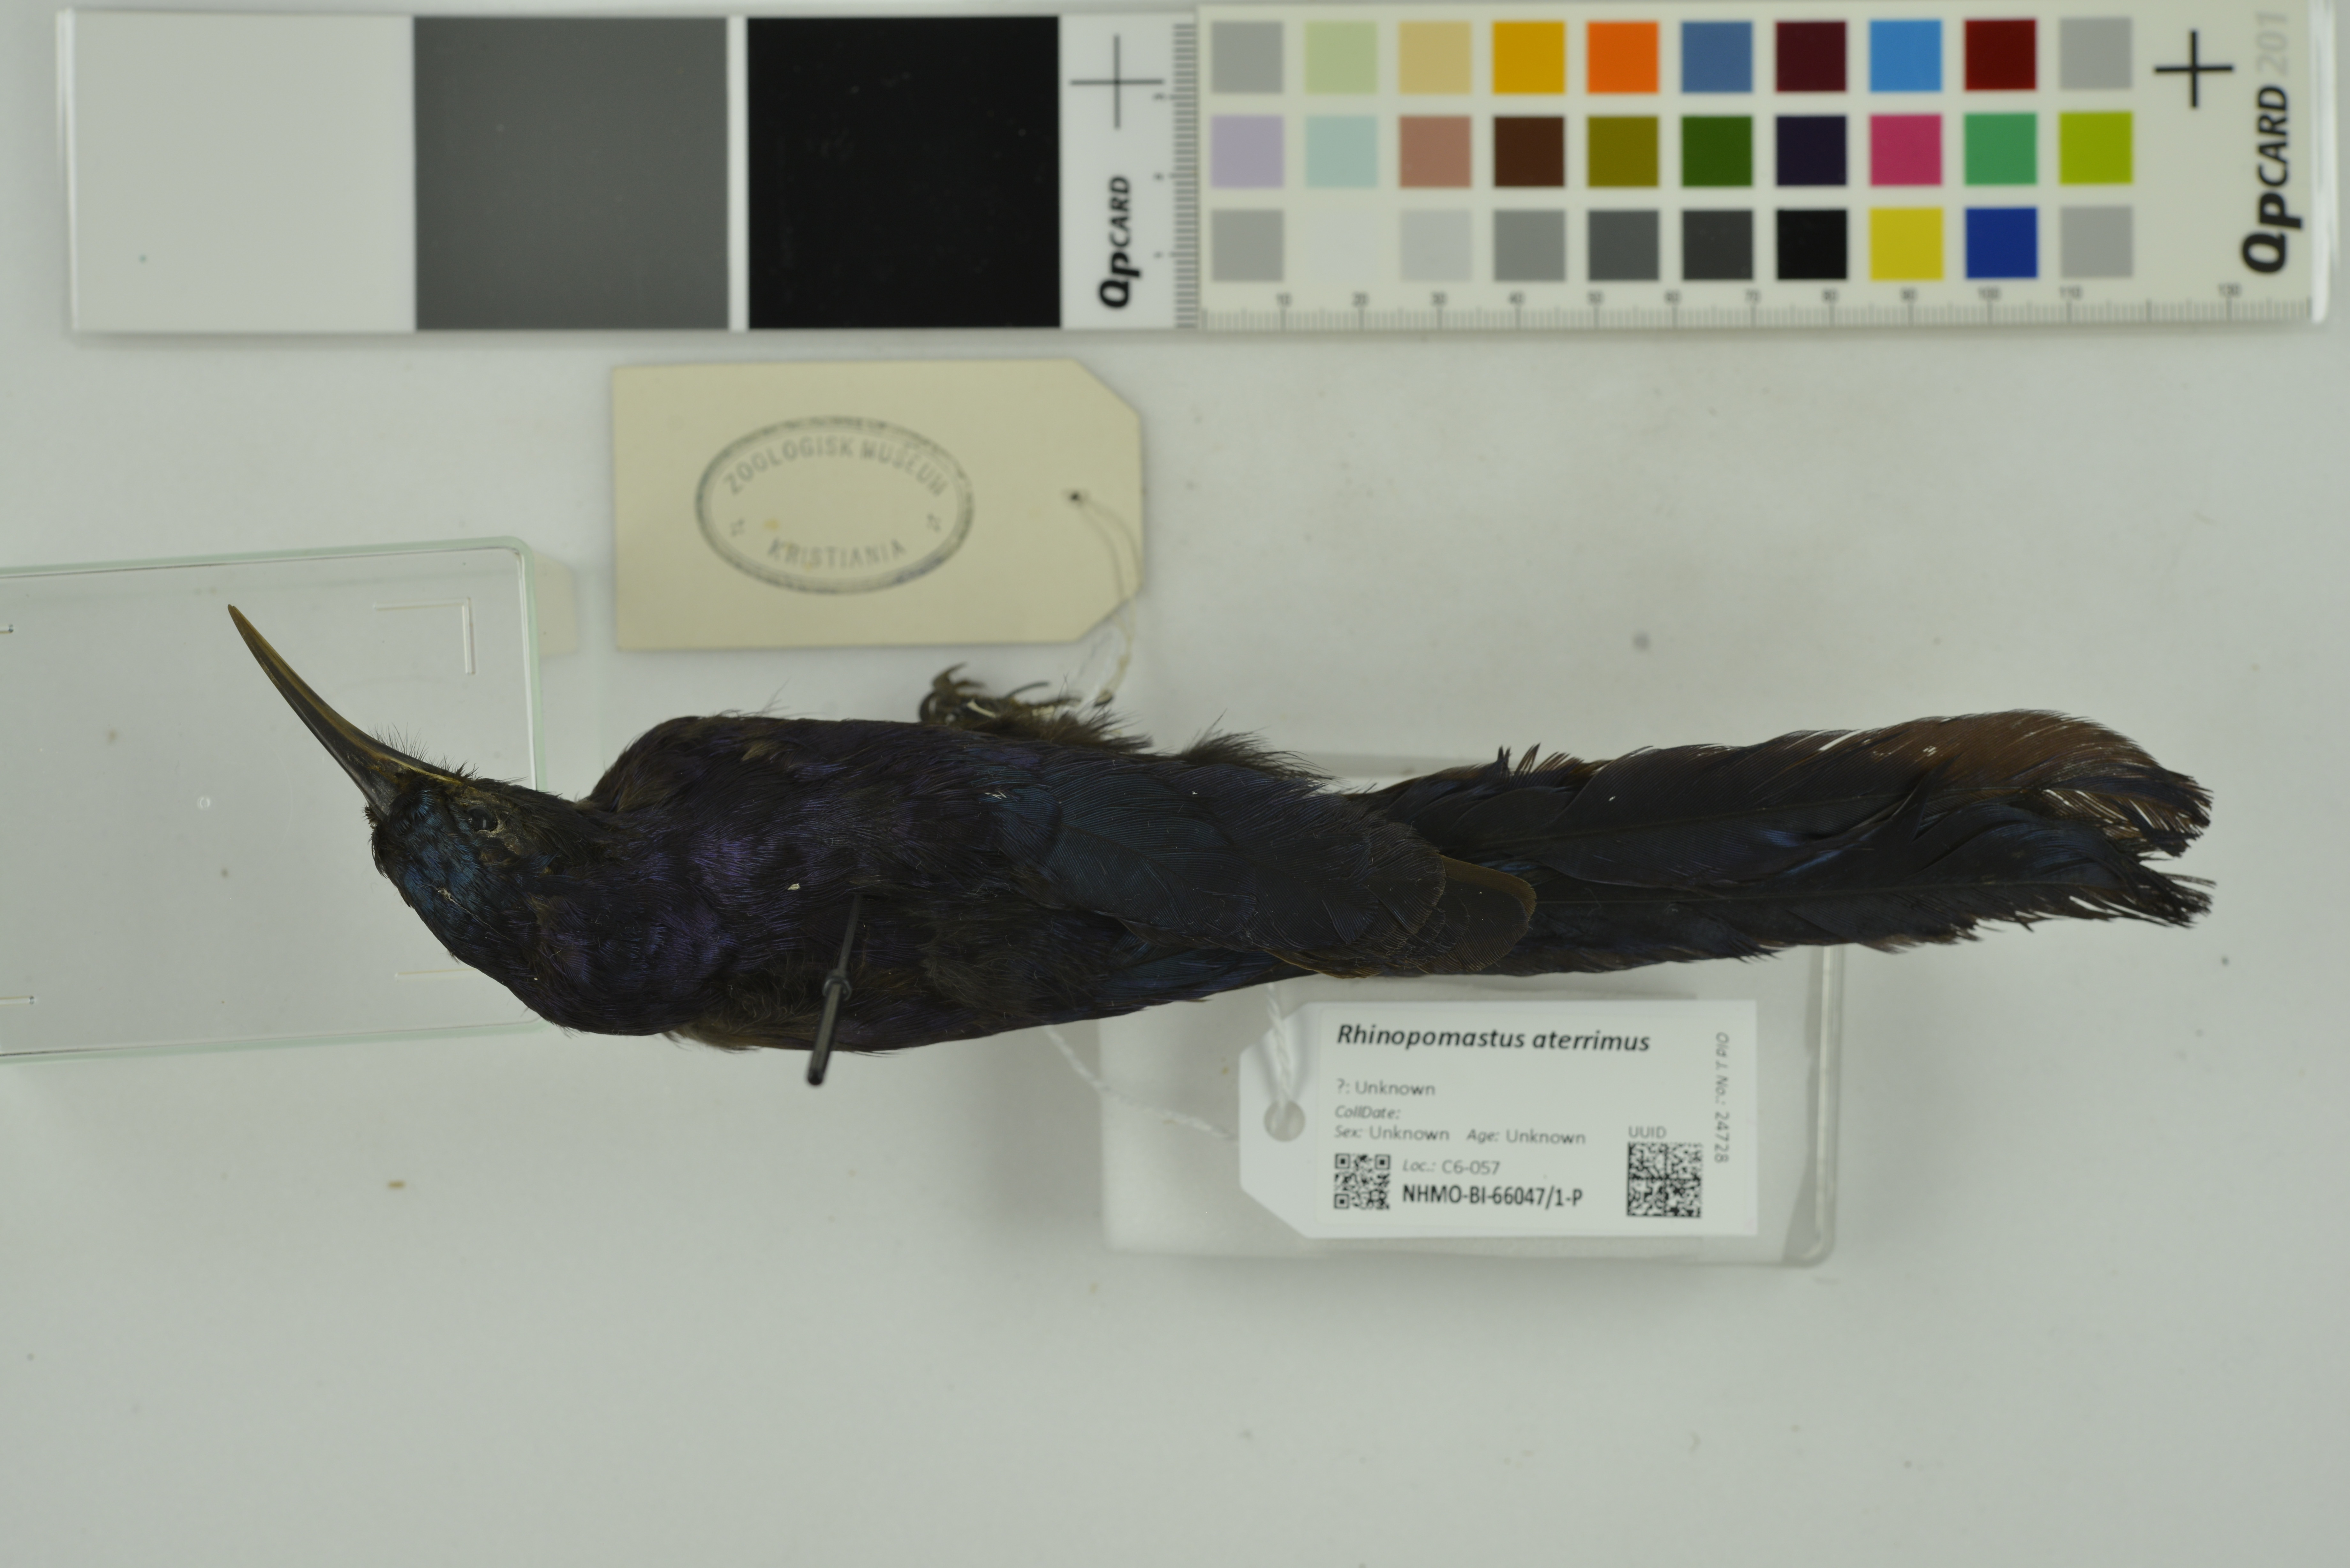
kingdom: Animalia
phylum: Chordata
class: Aves
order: Bucerotiformes
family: Phoeniculidae
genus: Rhinopomastus
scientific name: Rhinopomastus aterrimus
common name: Black scimitarbill
